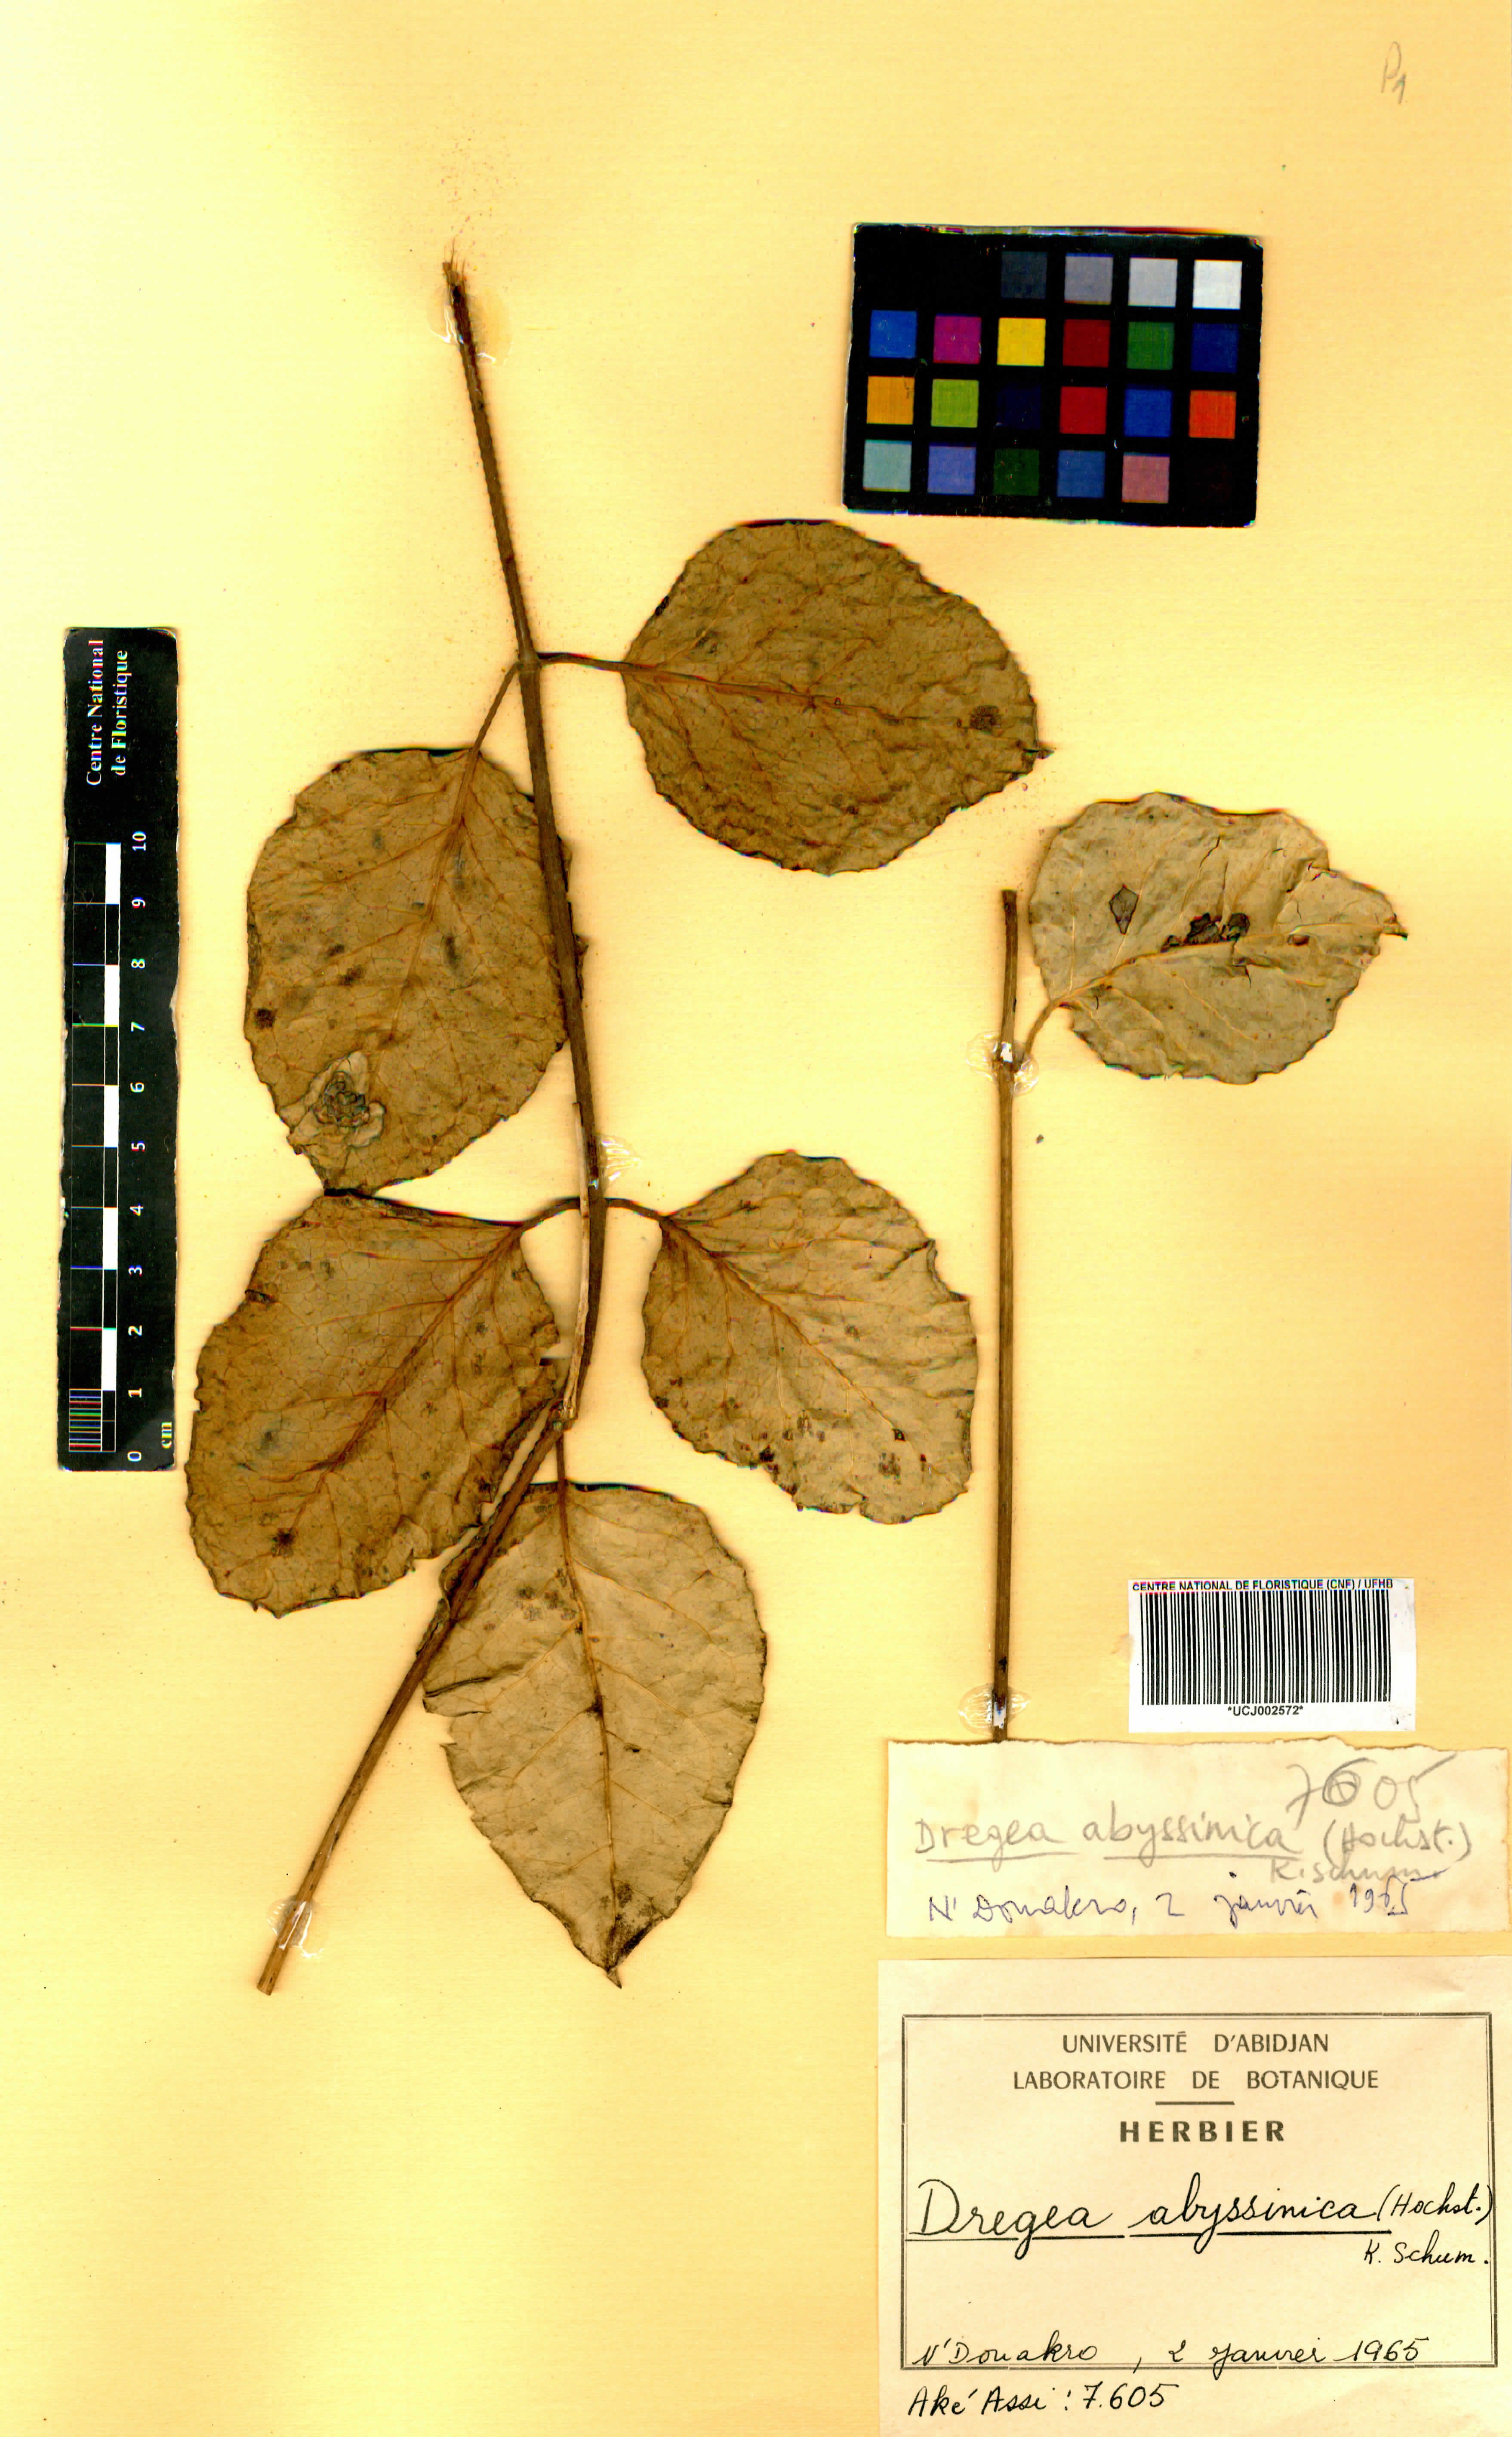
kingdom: Plantae
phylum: Tracheophyta
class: Magnoliopsida
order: Gentianales
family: Apocynaceae
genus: Stephanotis
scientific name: Stephanotis abyssinica
